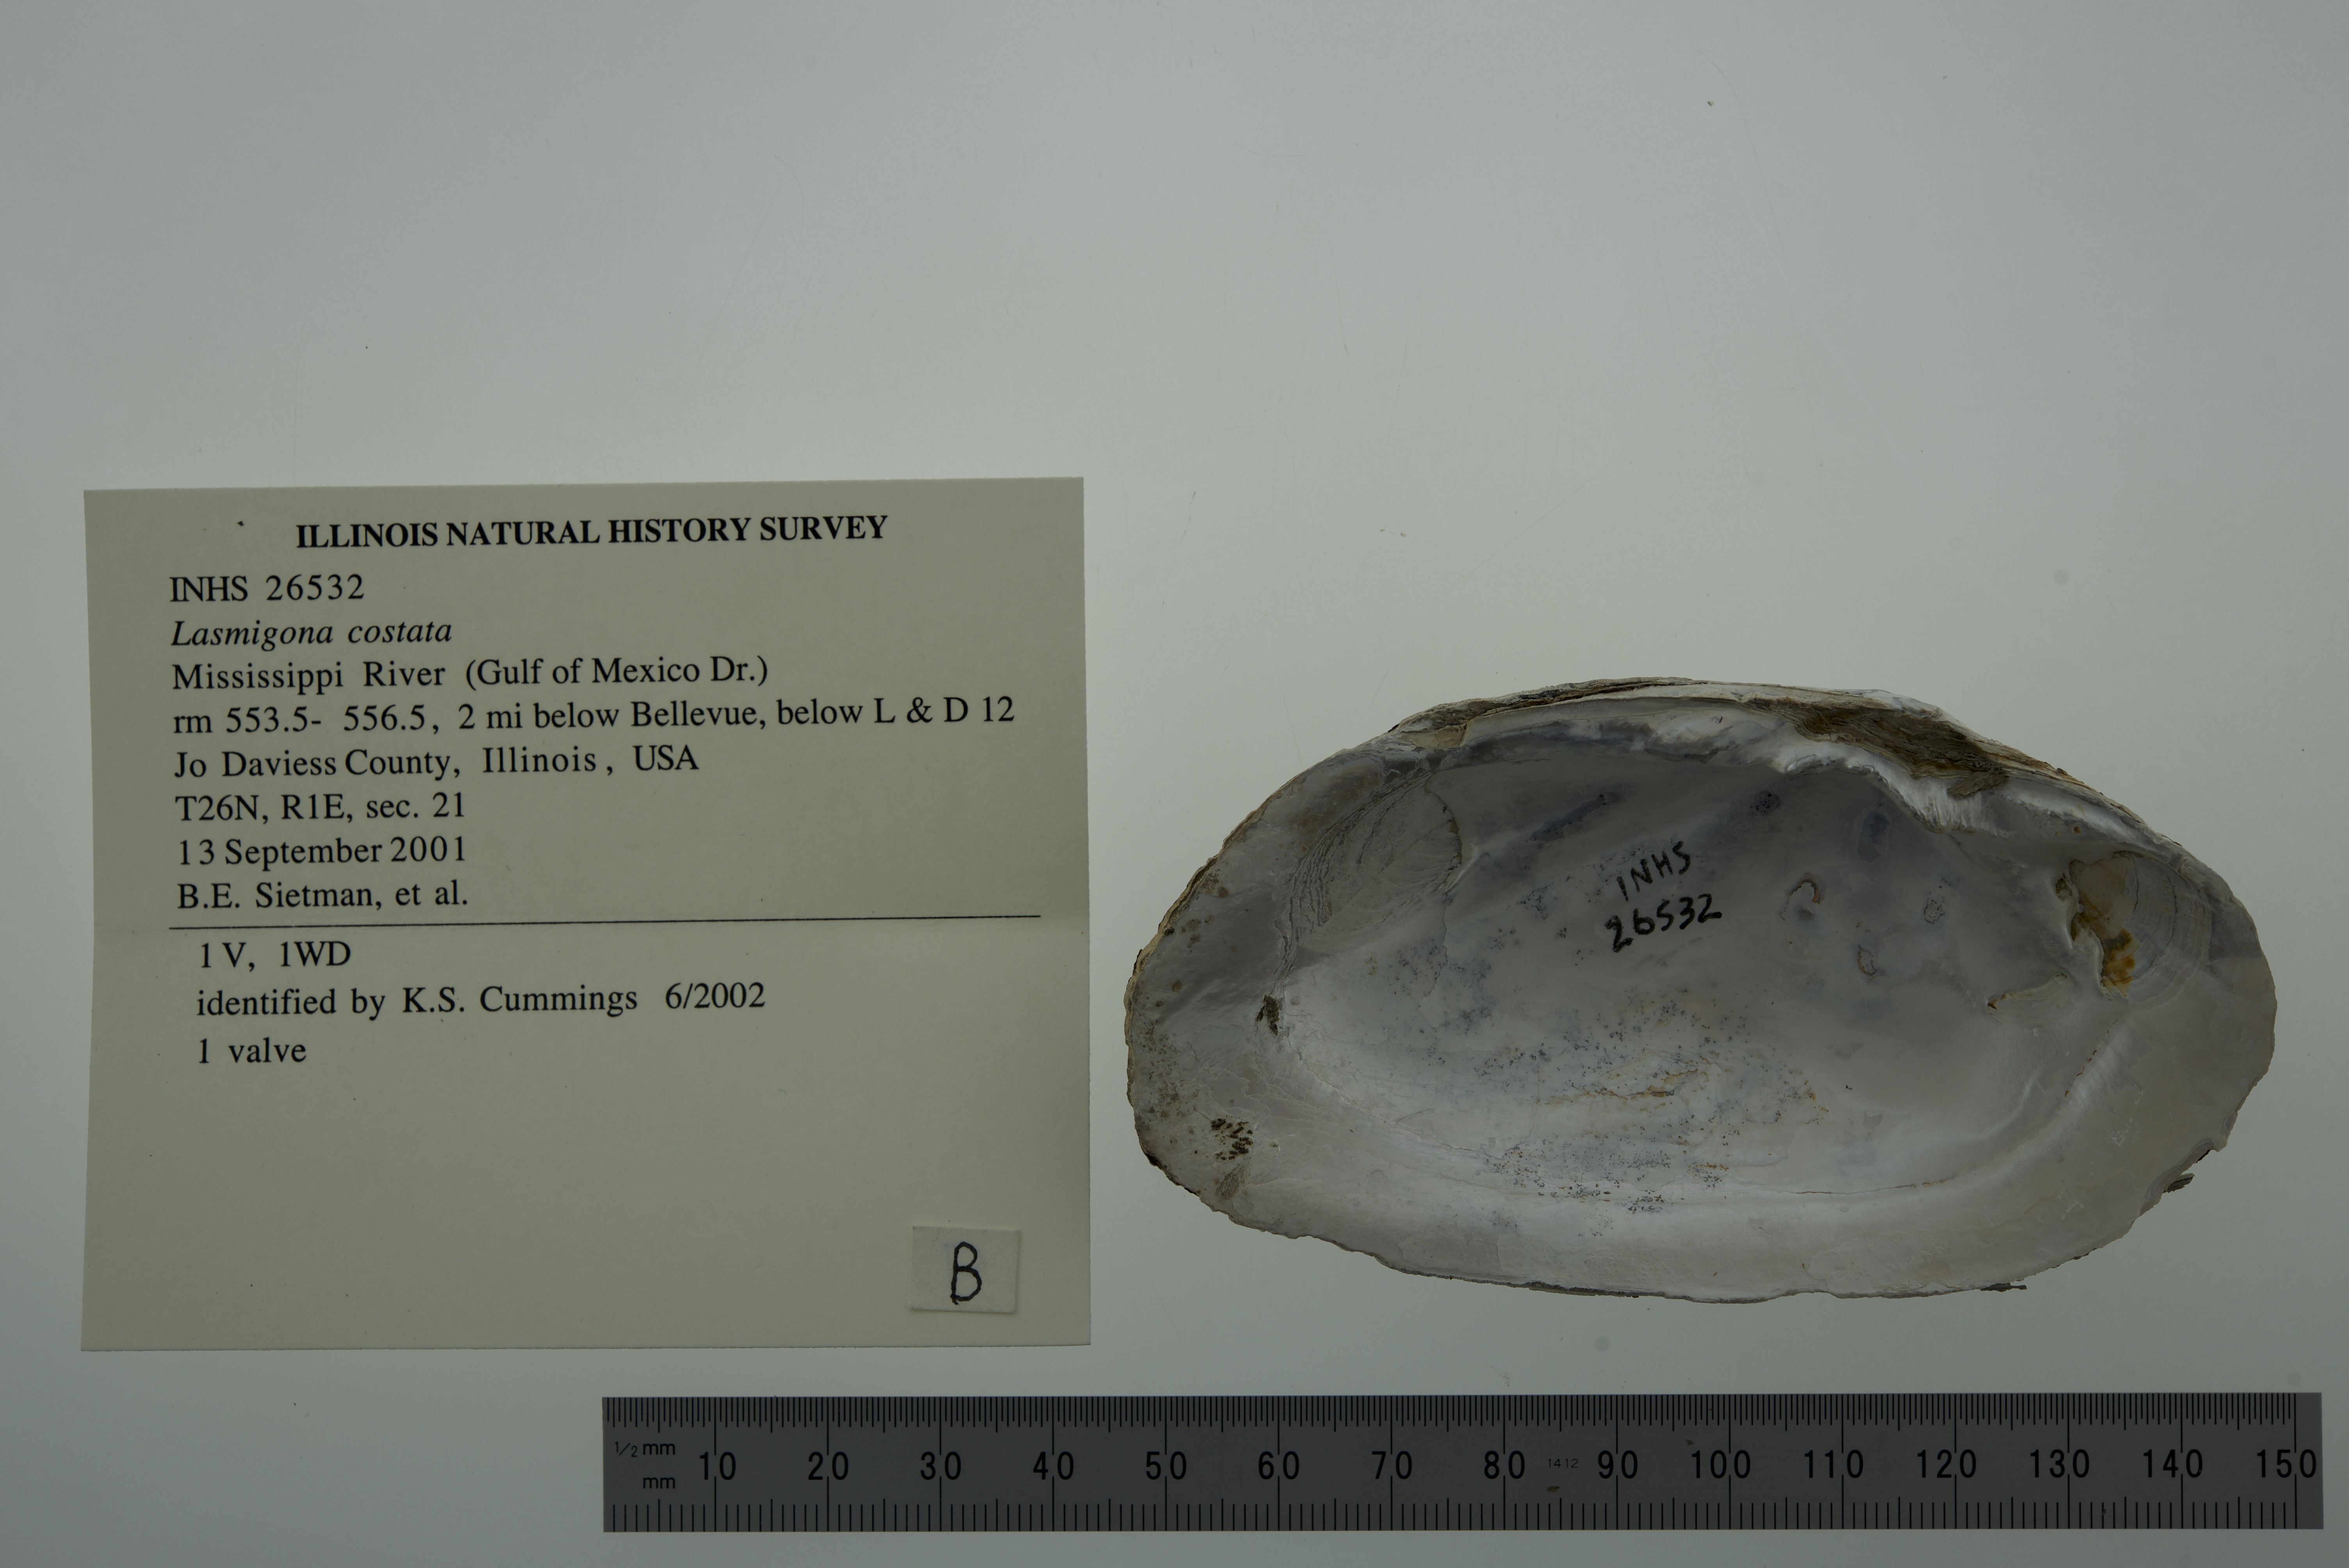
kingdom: Animalia
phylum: Mollusca
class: Bivalvia
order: Unionida
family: Unionidae
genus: Lasmigona
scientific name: Lasmigona costata
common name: Flutedshell
